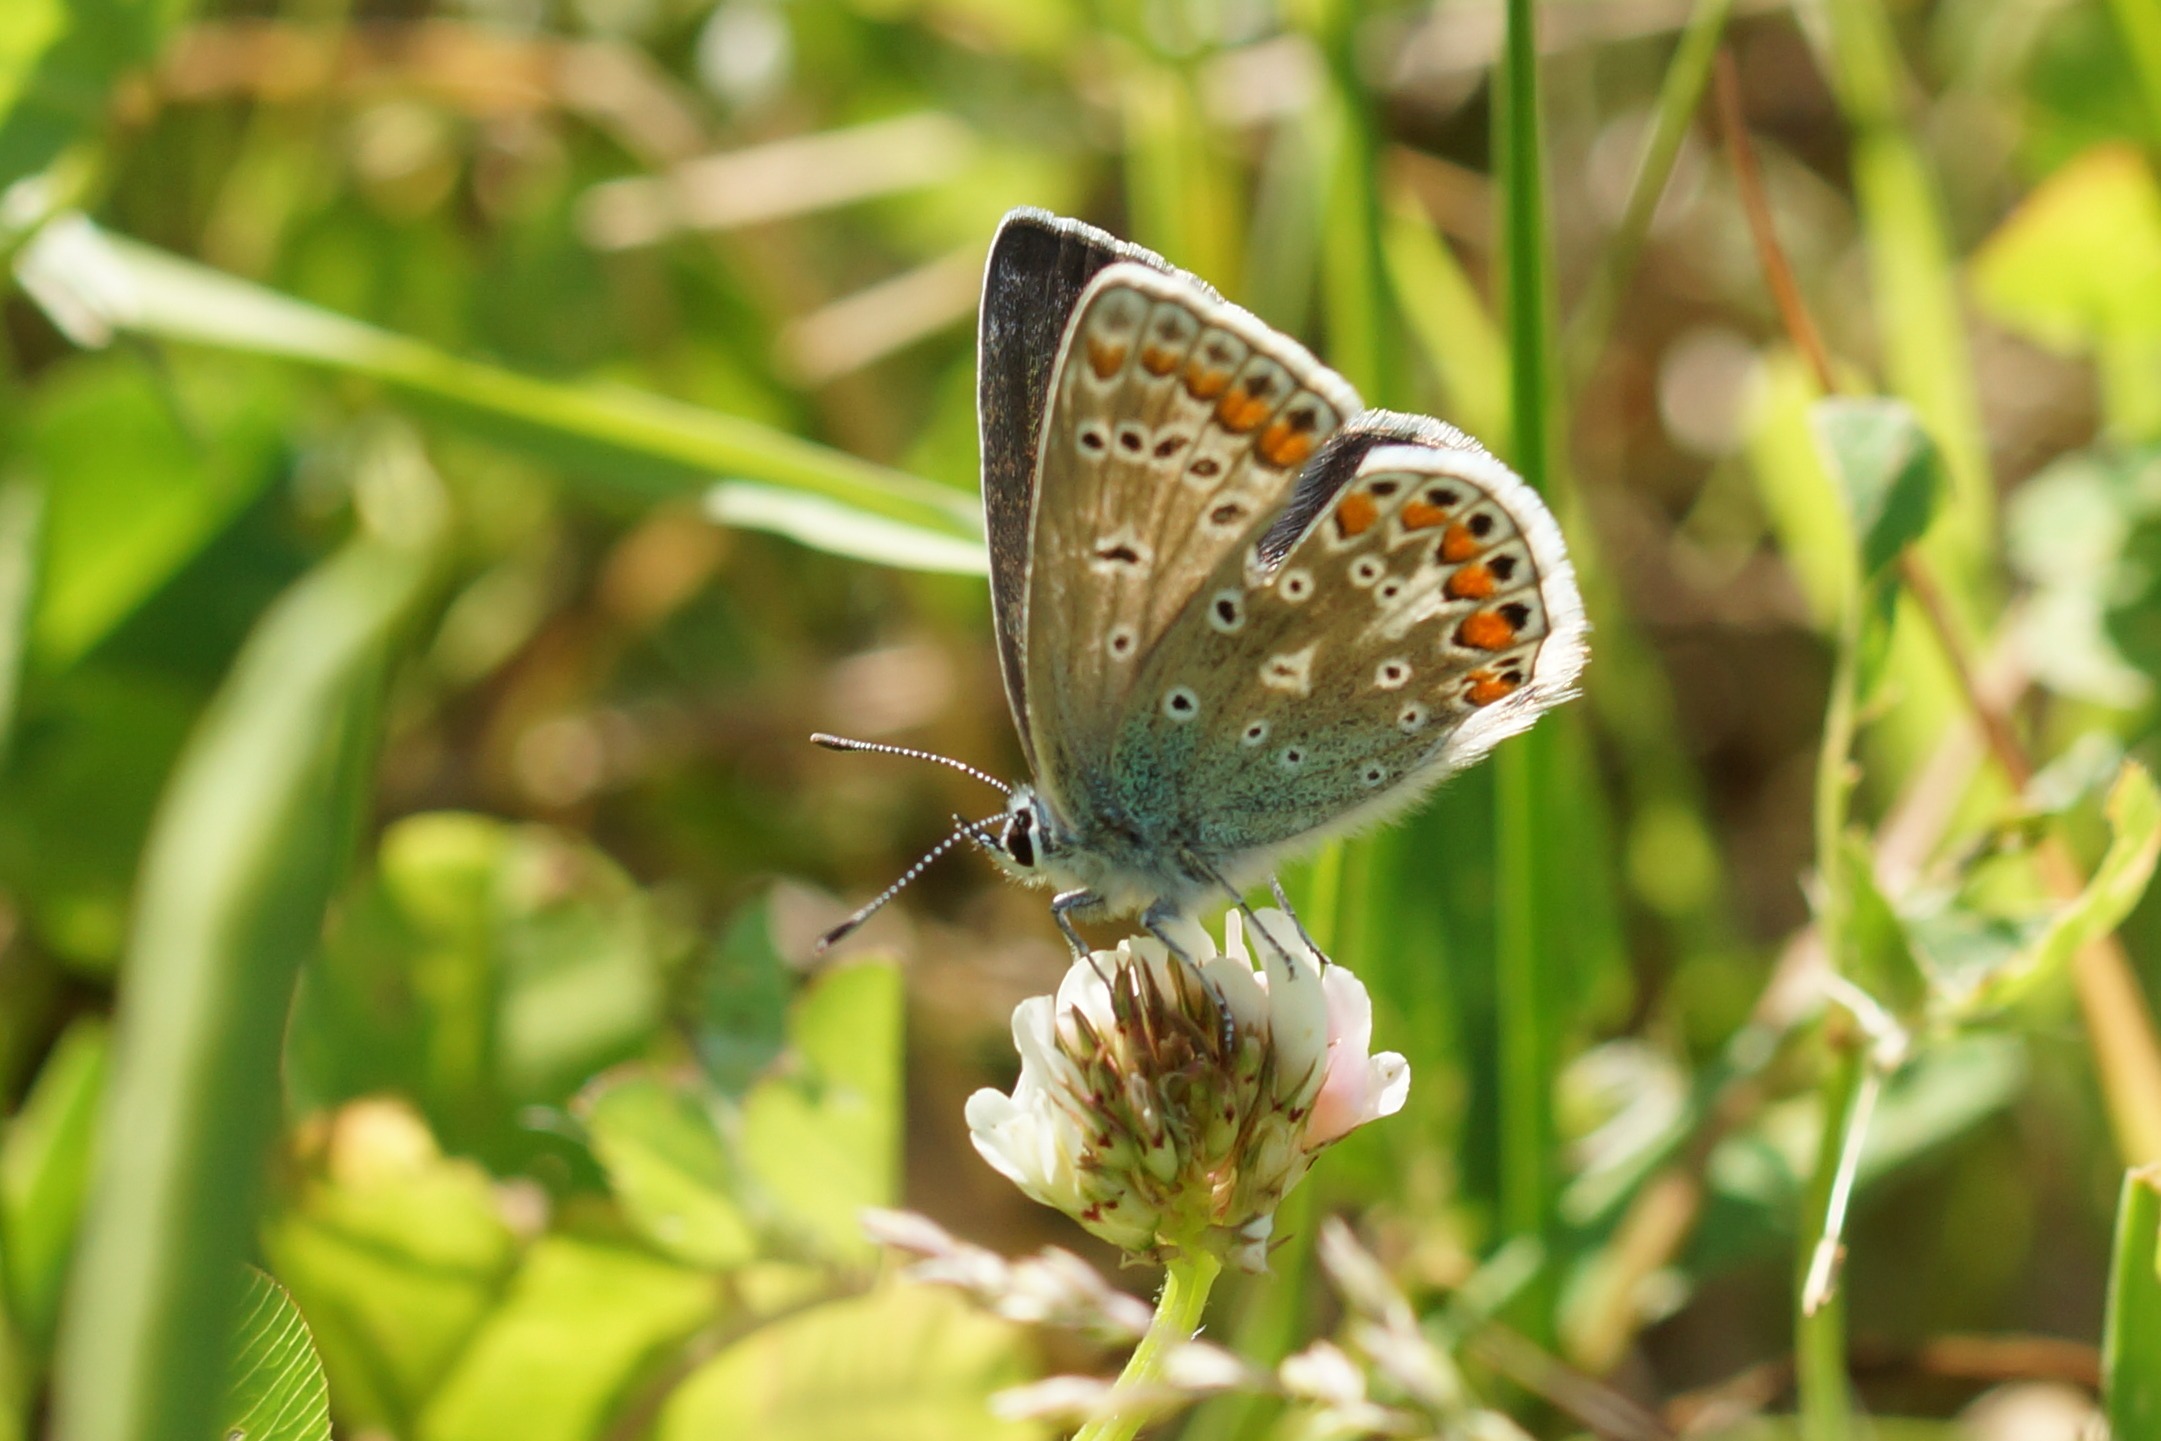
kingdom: Animalia
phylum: Arthropoda
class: Insecta
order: Lepidoptera
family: Lycaenidae
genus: Polyommatus
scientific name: Polyommatus icarus
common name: Almindelig blåfugl
